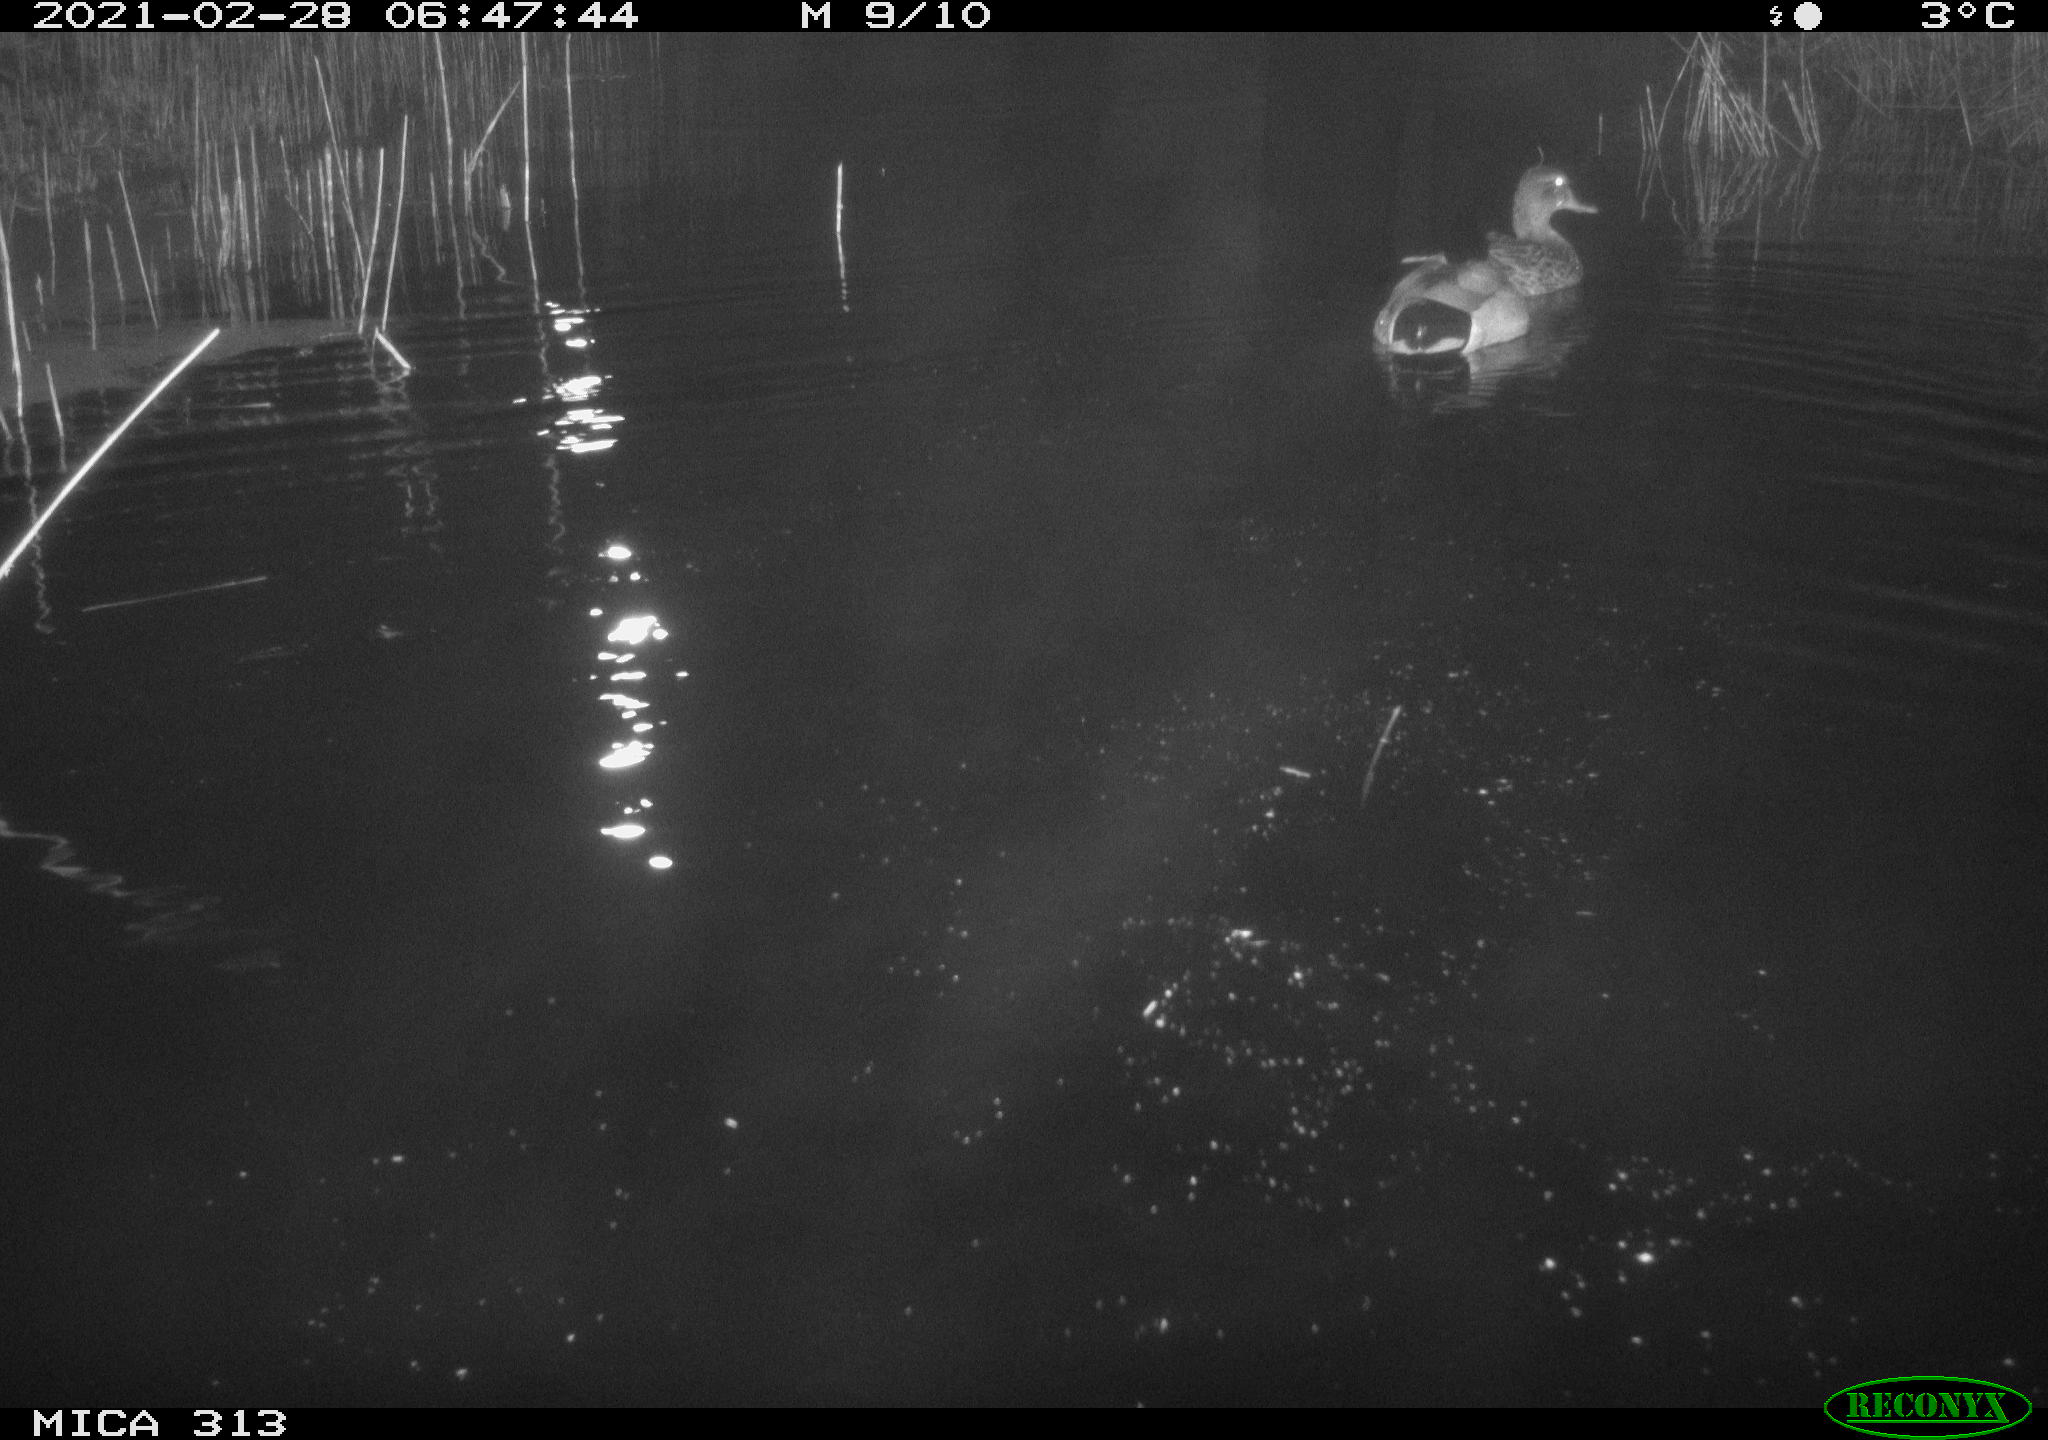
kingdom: Animalia
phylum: Chordata
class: Aves
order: Anseriformes
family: Anatidae
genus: Anas
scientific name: Anas
